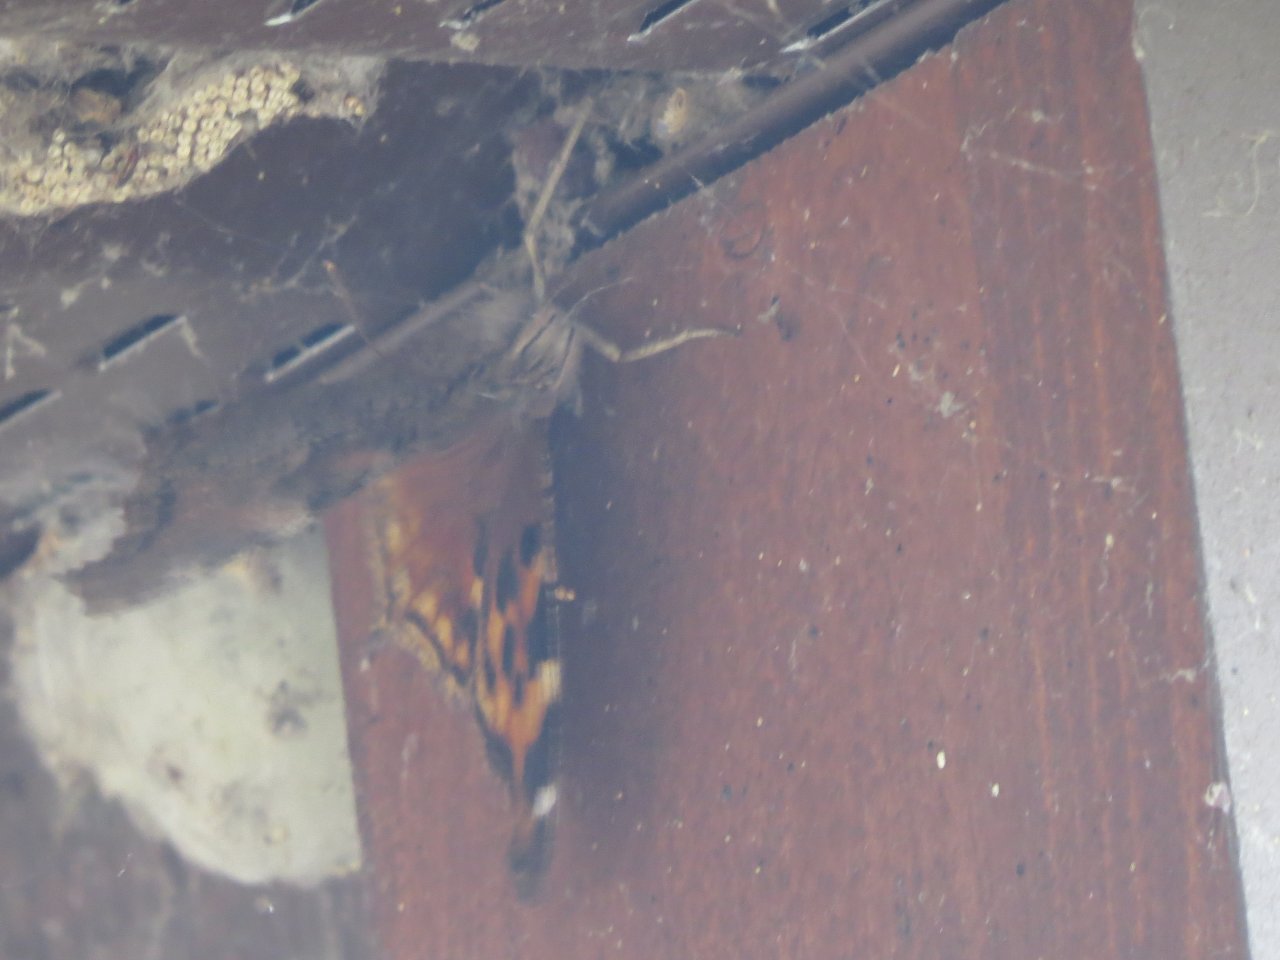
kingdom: Animalia
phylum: Arthropoda
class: Insecta
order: Lepidoptera
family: Nymphalidae
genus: Polygonia
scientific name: Polygonia vaualbum
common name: Compton Tortoiseshell
